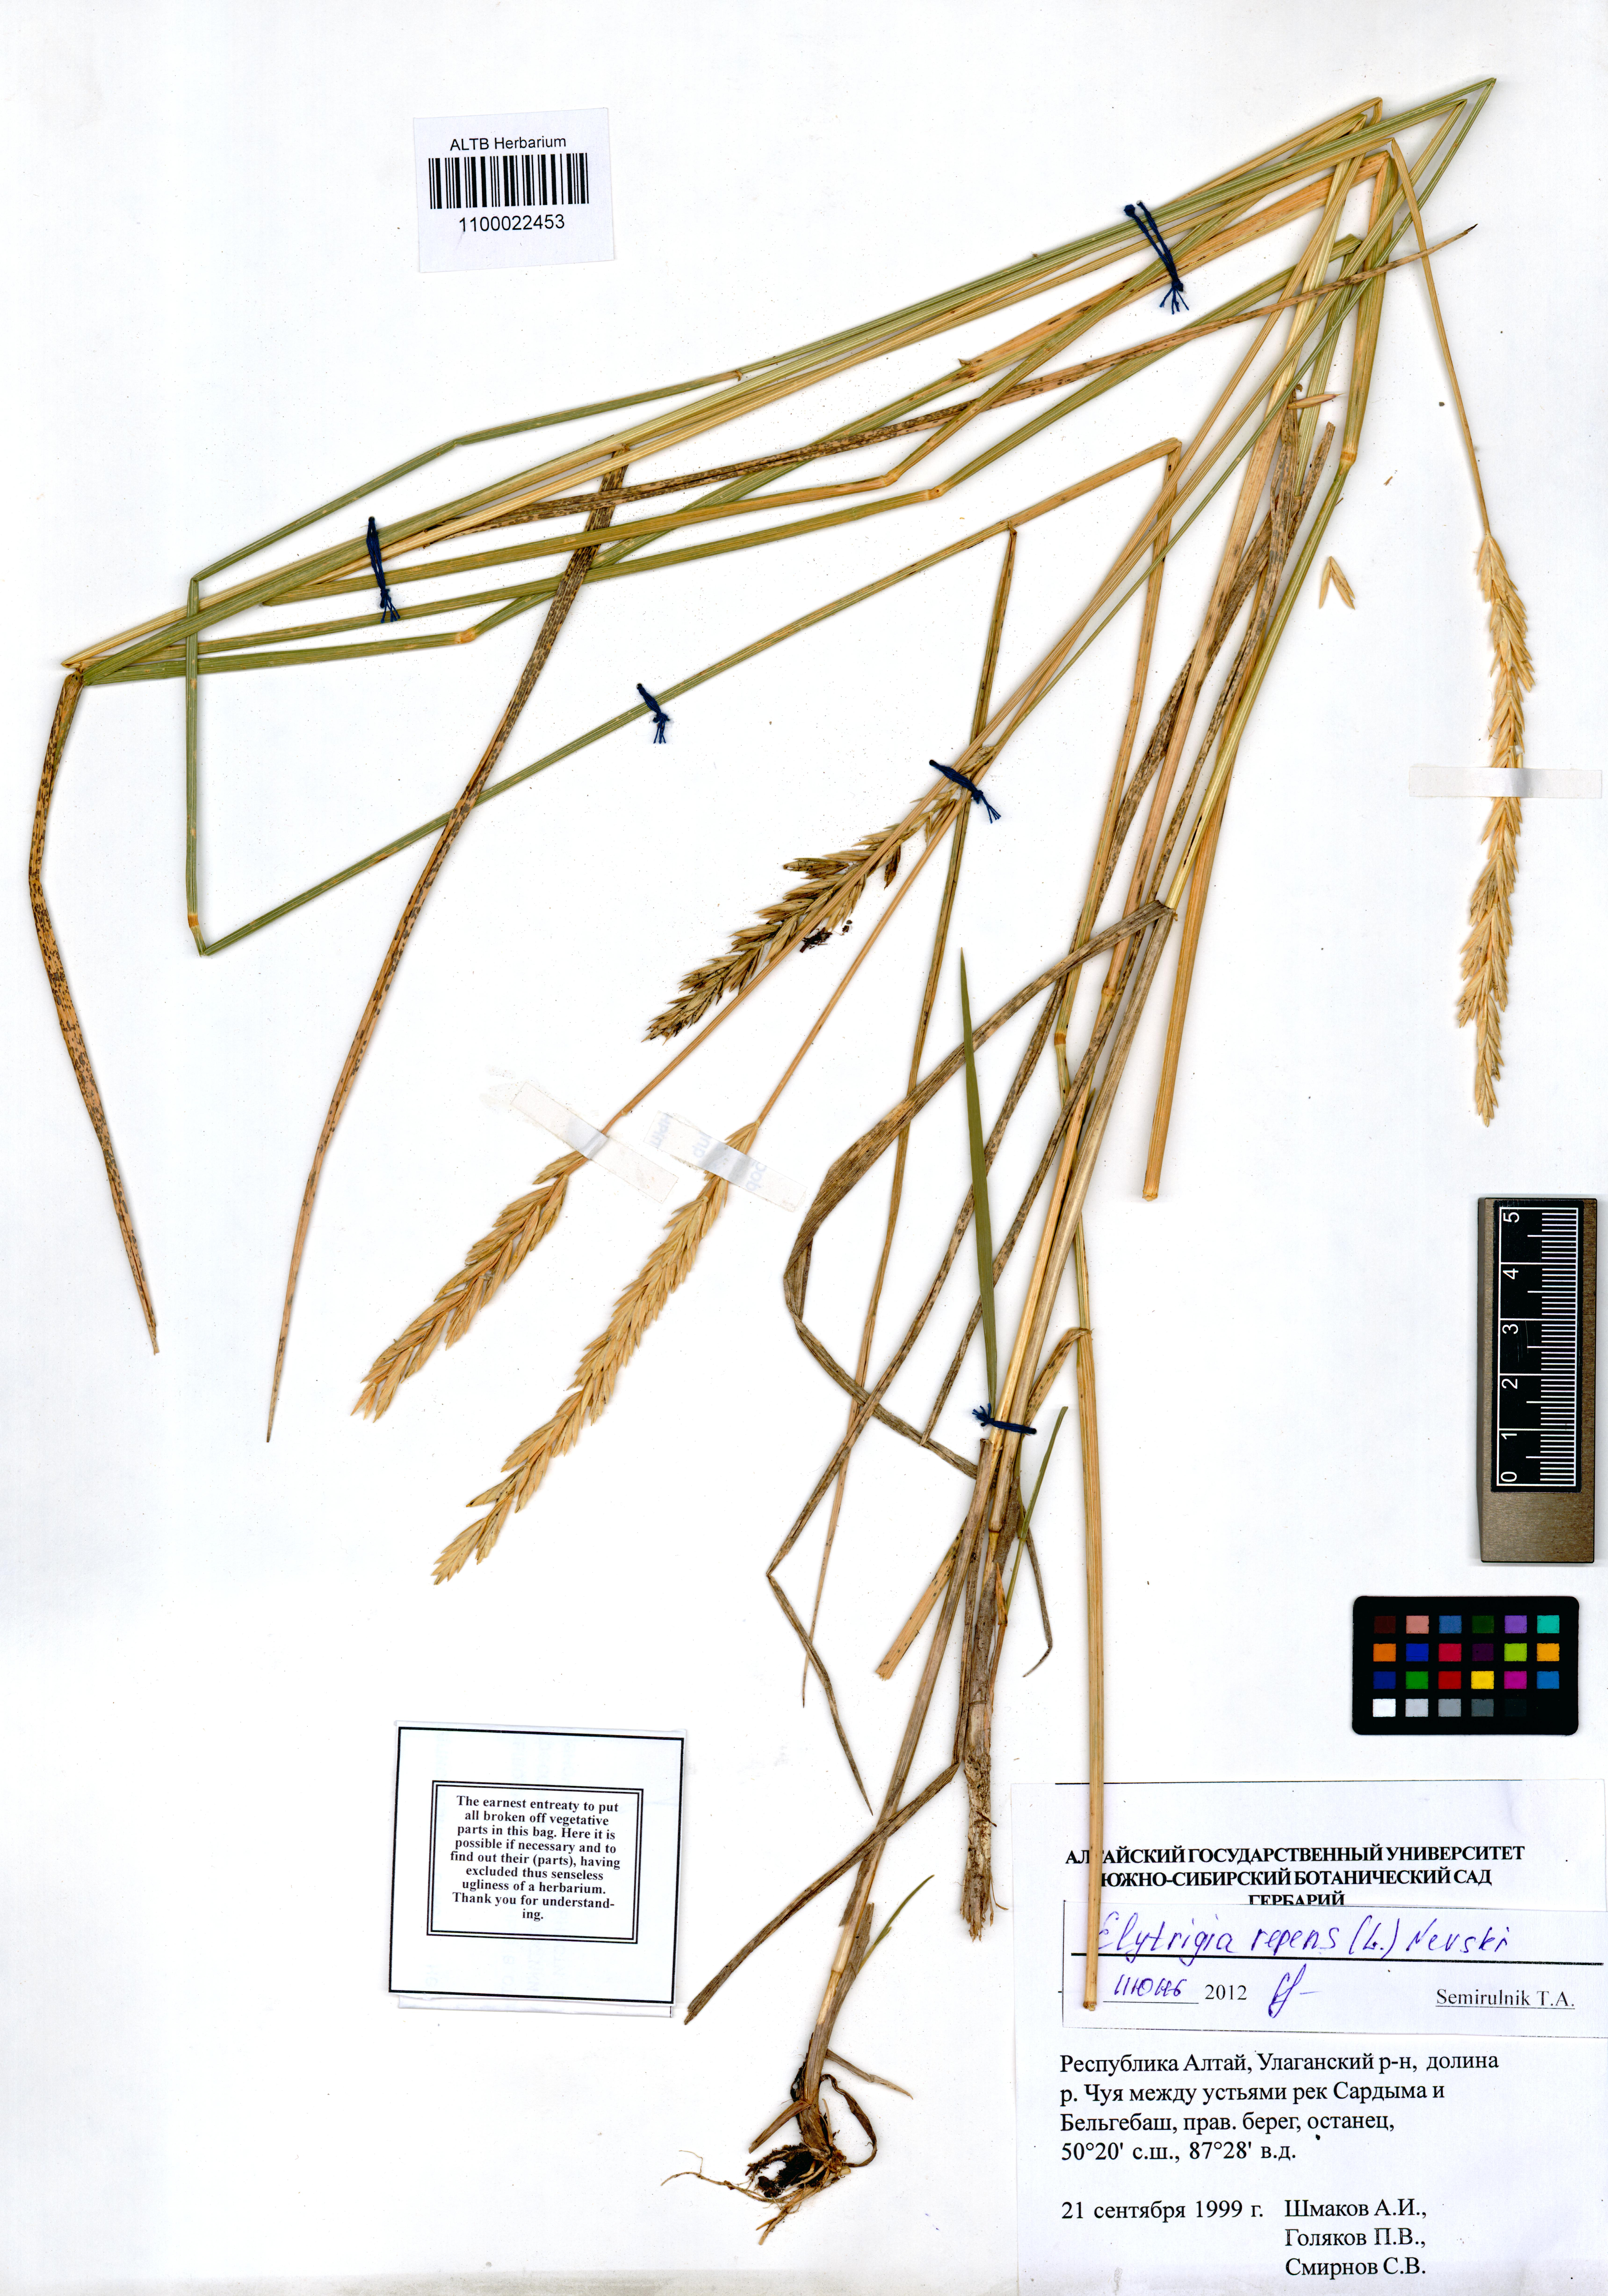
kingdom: Plantae
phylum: Tracheophyta
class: Liliopsida
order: Poales
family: Poaceae
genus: Elymus
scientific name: Elymus repens
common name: Quackgrass
